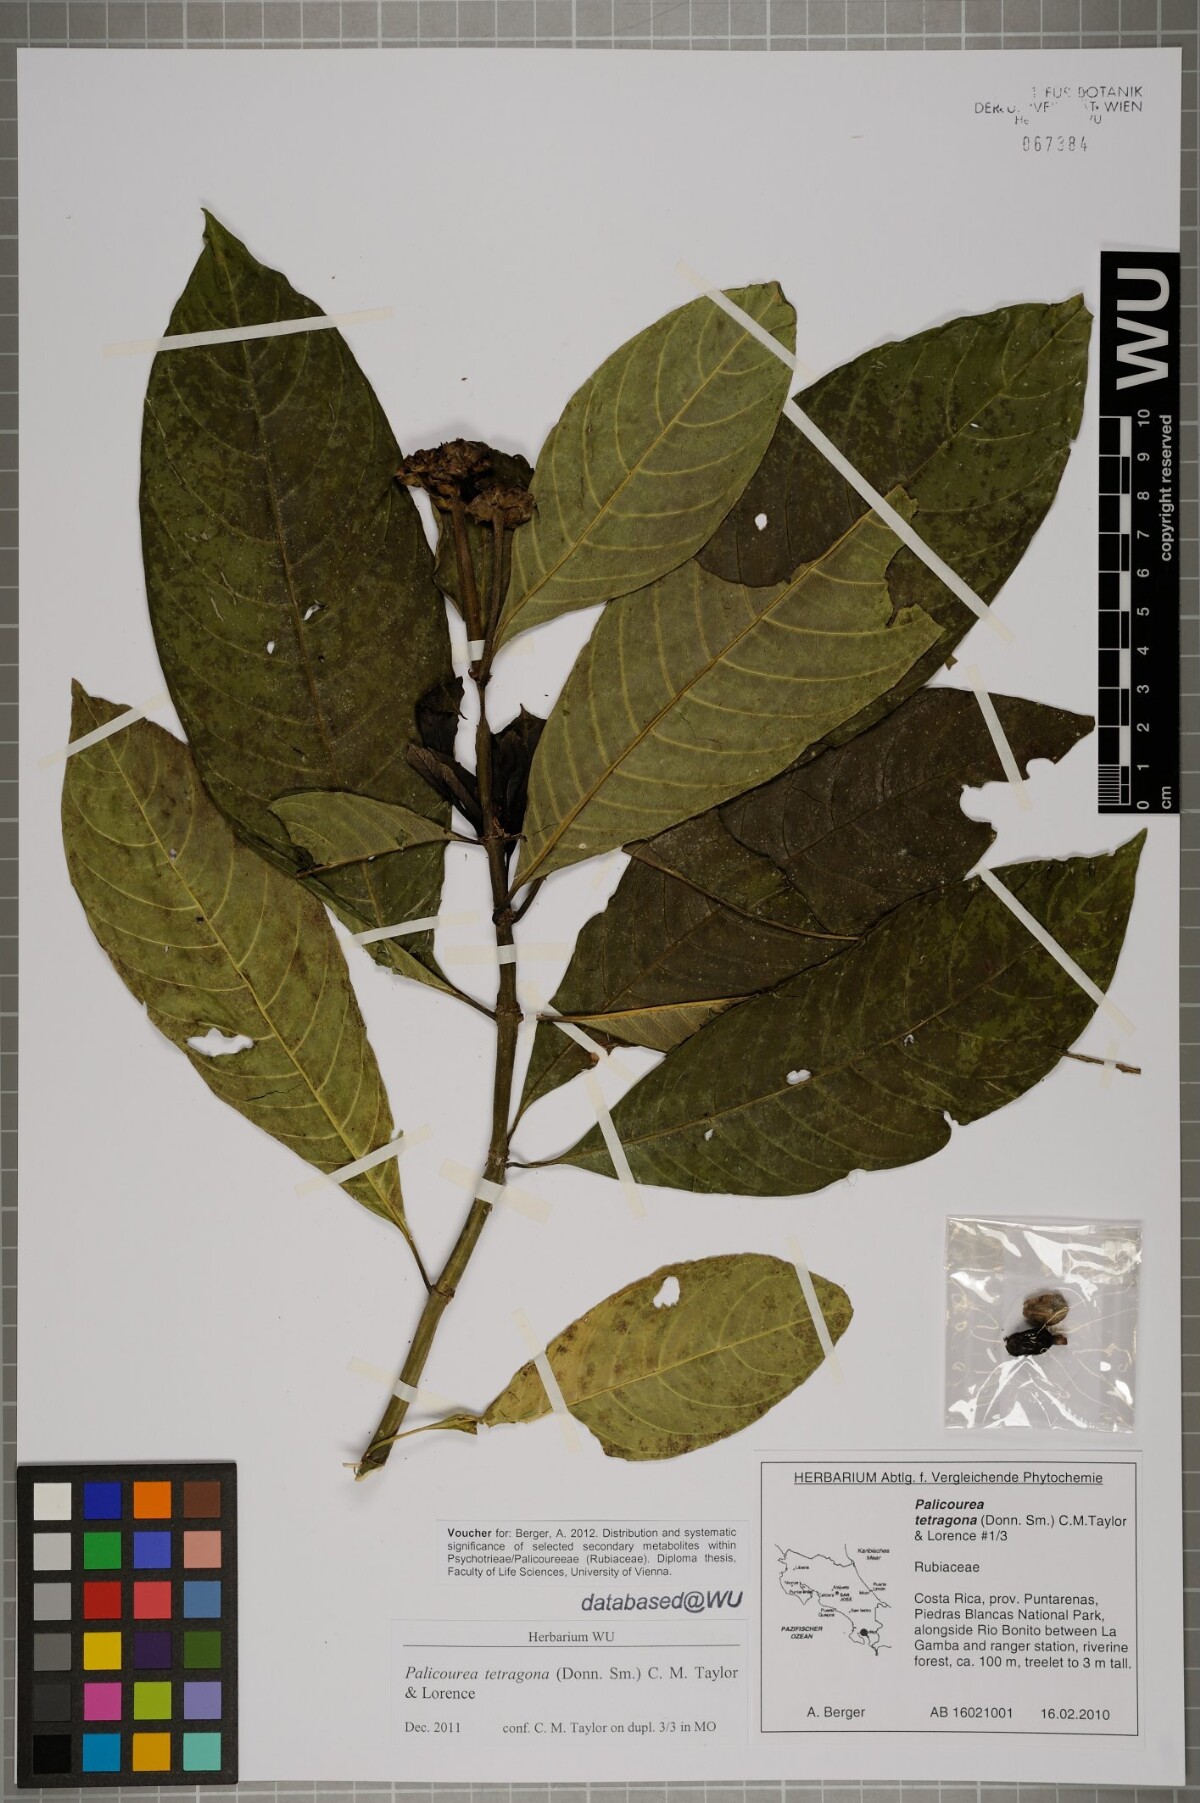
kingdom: Plantae
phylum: Tracheophyta
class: Magnoliopsida
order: Gentianales
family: Rubiaceae
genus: Palicourea
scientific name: Palicourea tetragona
